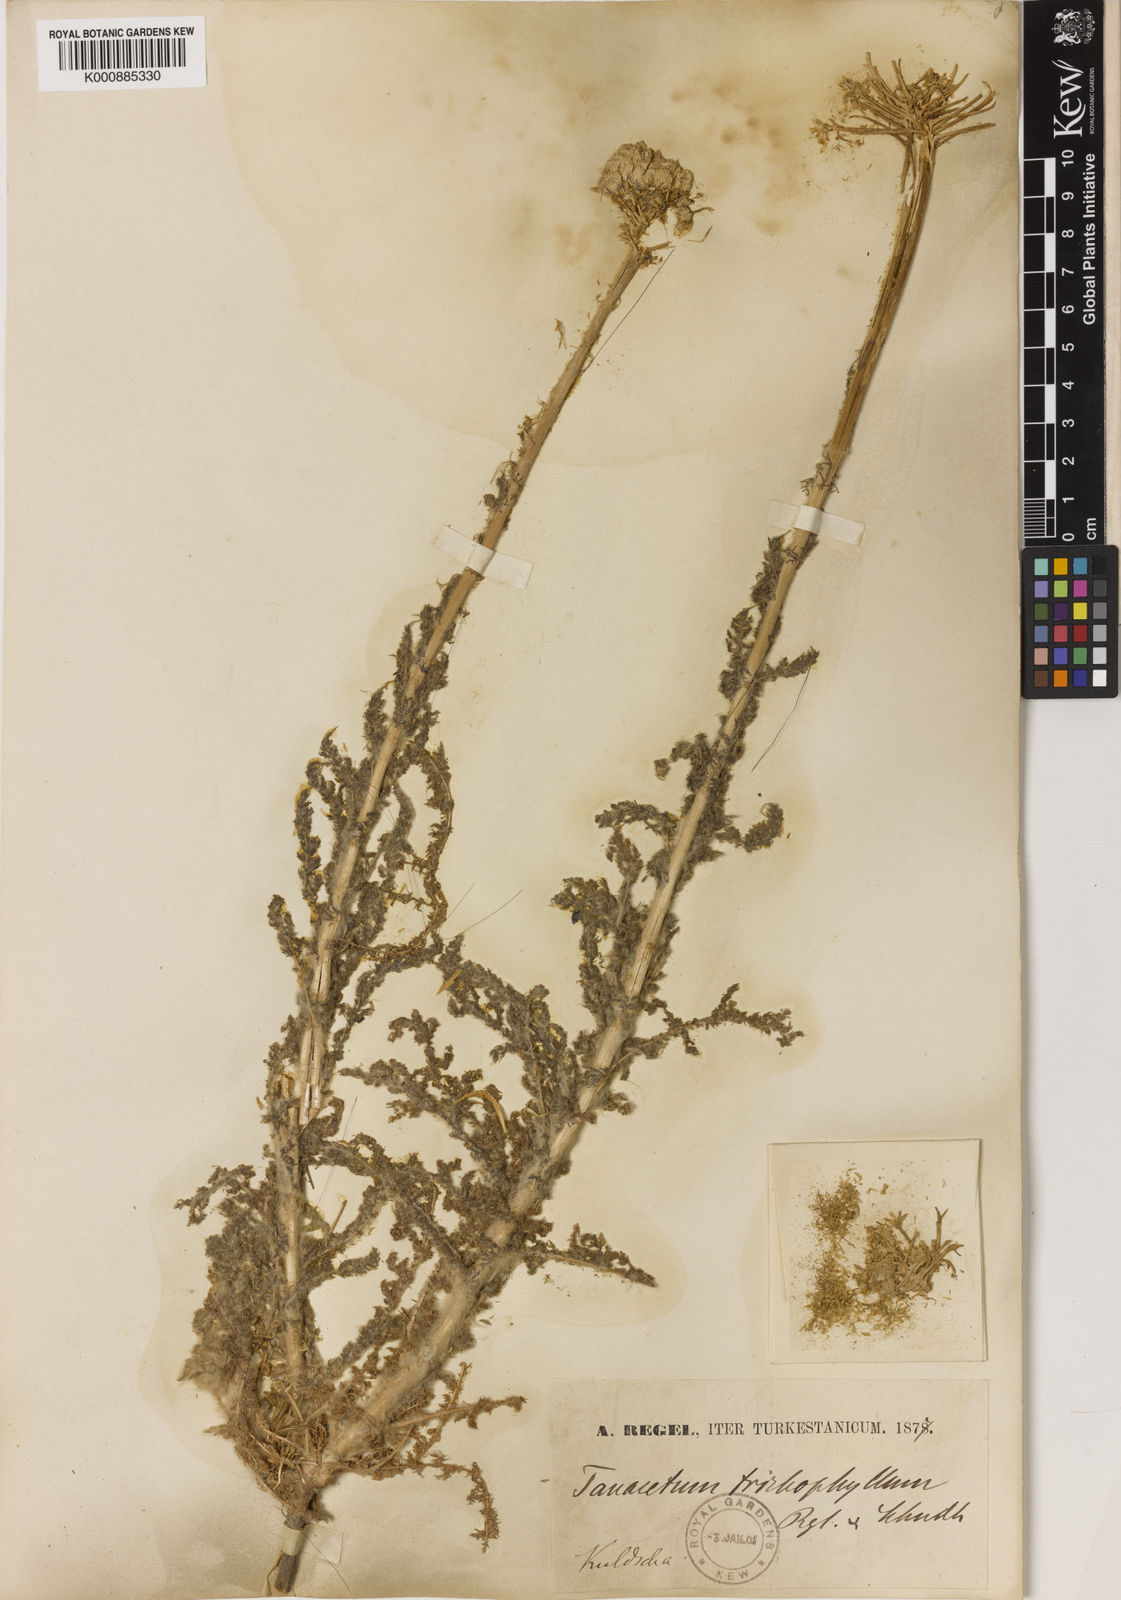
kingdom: Plantae
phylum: Tracheophyta
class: Magnoliopsida
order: Asterales
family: Asteraceae
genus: Pseudohandelia
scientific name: Pseudohandelia umbellifera
